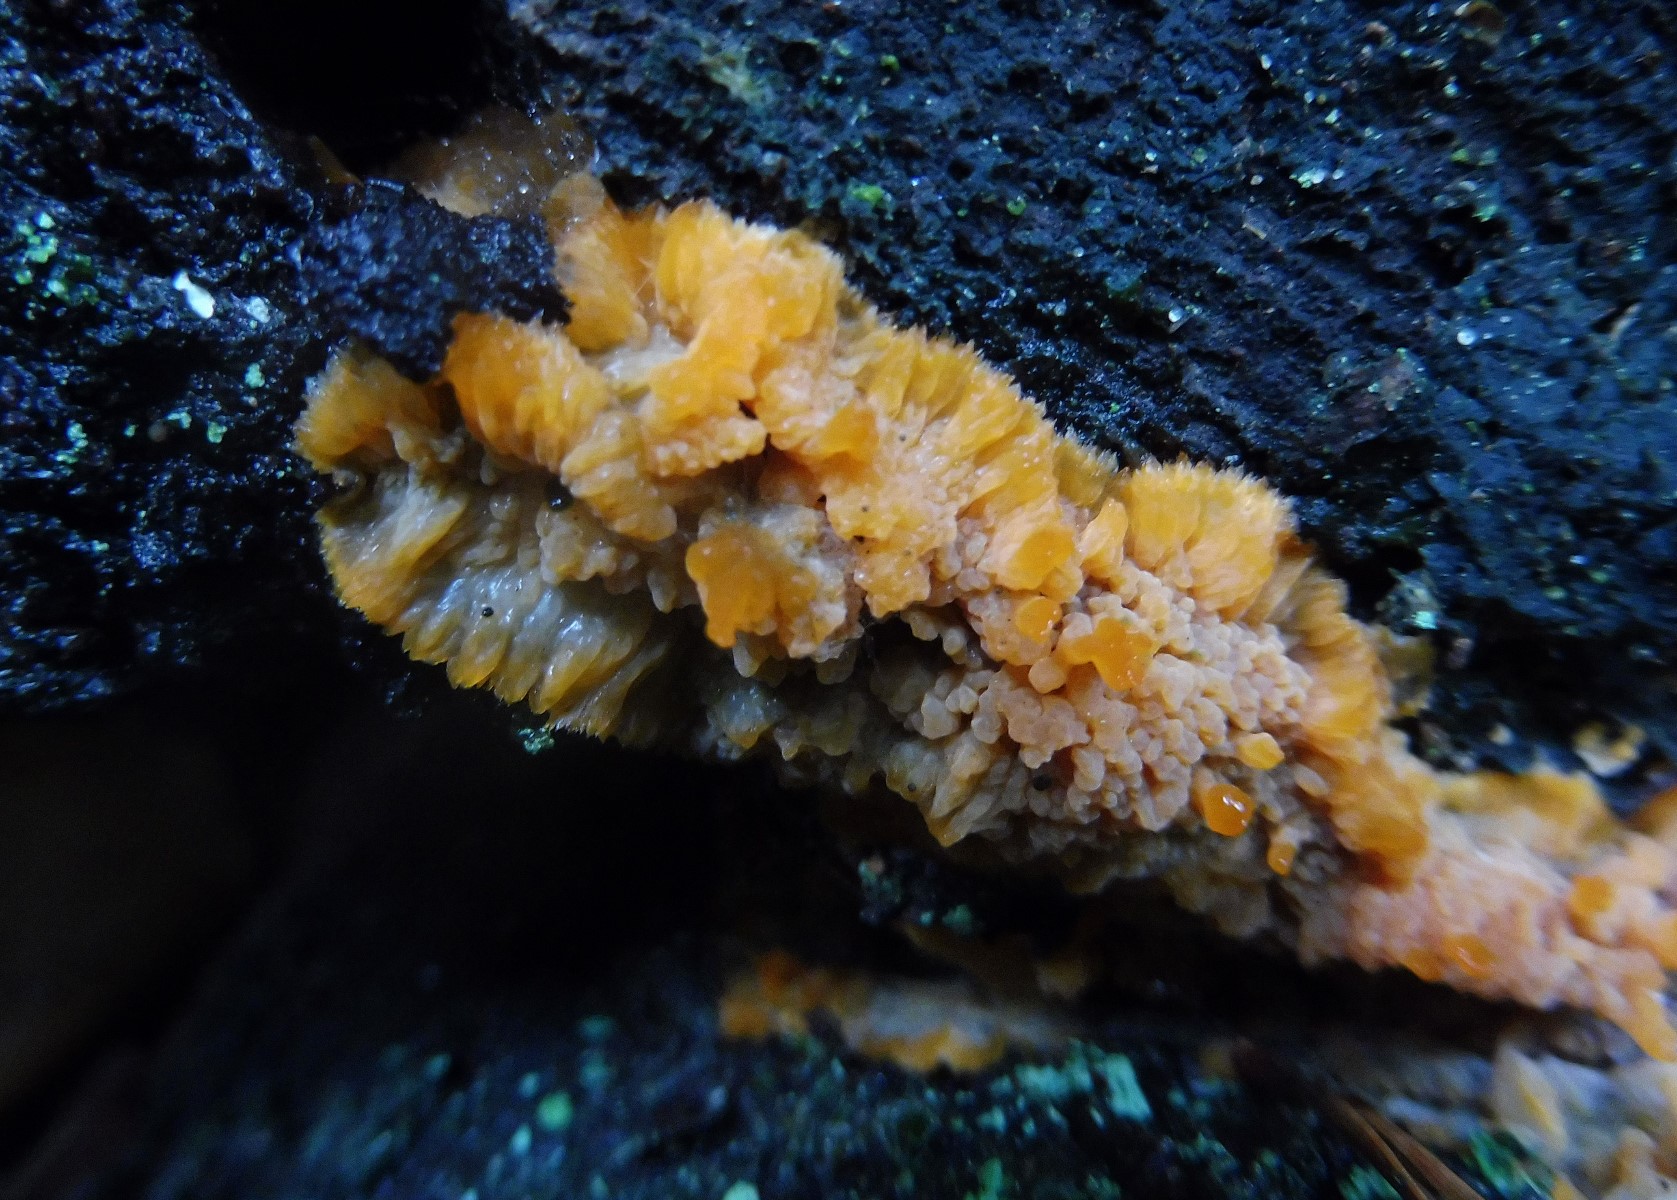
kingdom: Fungi
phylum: Basidiomycota
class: Agaricomycetes
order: Polyporales
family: Meruliaceae
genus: Phlebia
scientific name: Phlebia radiata
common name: stråle-åresvamp
